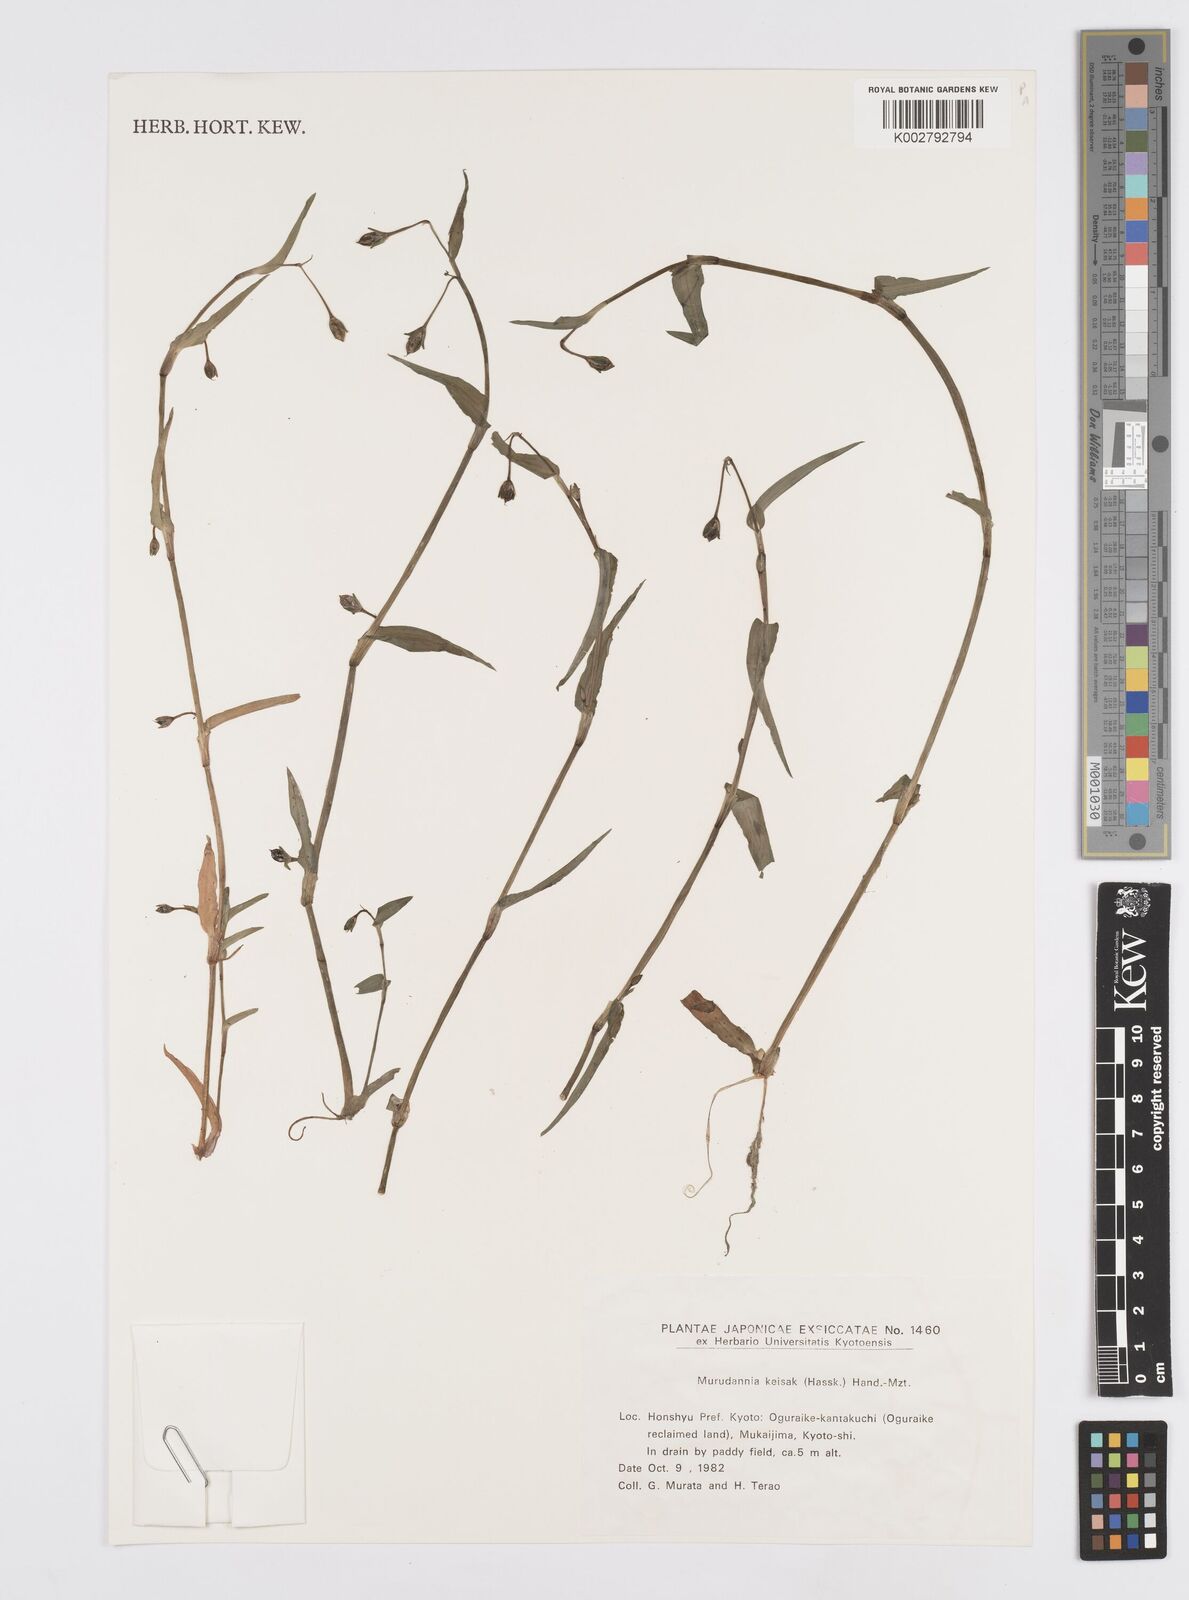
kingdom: Plantae
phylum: Tracheophyta
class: Liliopsida
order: Commelinales
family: Commelinaceae
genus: Murdannia
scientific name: Murdannia keisak
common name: Wartremoving herb
